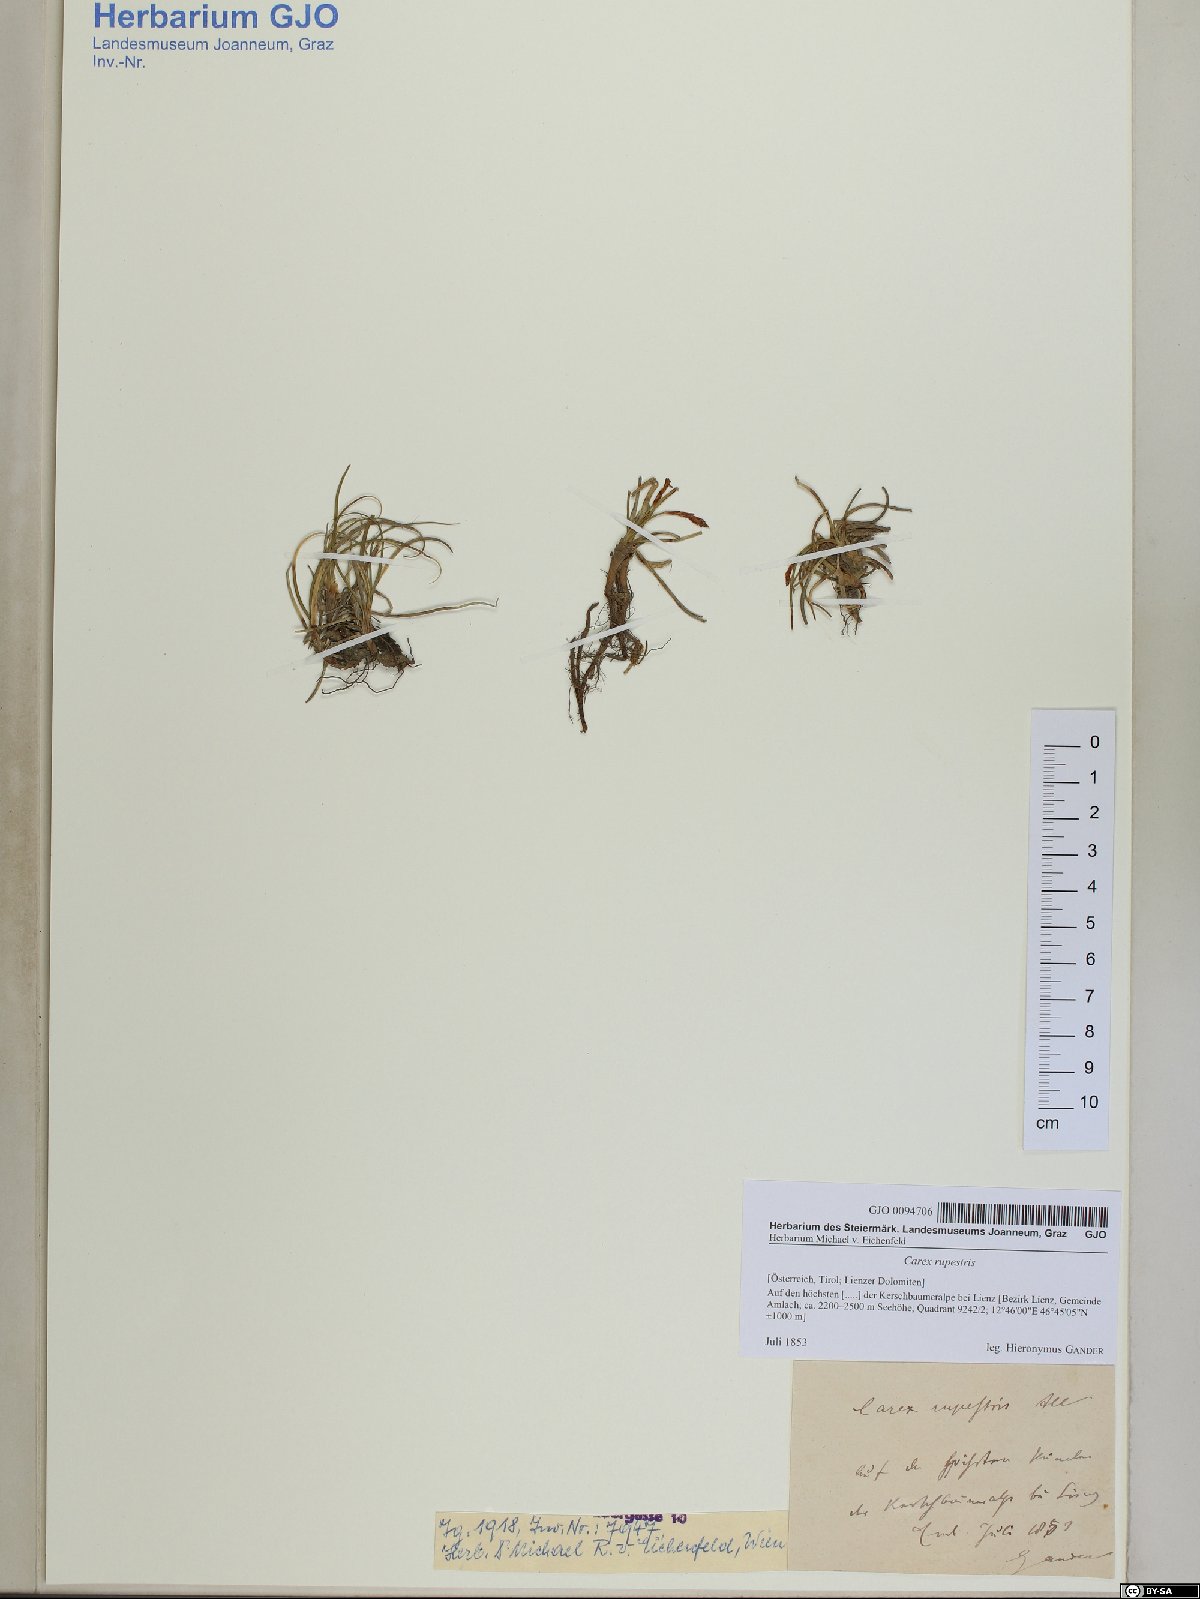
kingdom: Plantae
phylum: Tracheophyta
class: Liliopsida
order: Poales
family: Cyperaceae
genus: Carex
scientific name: Carex rupestris
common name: Rock sedge
